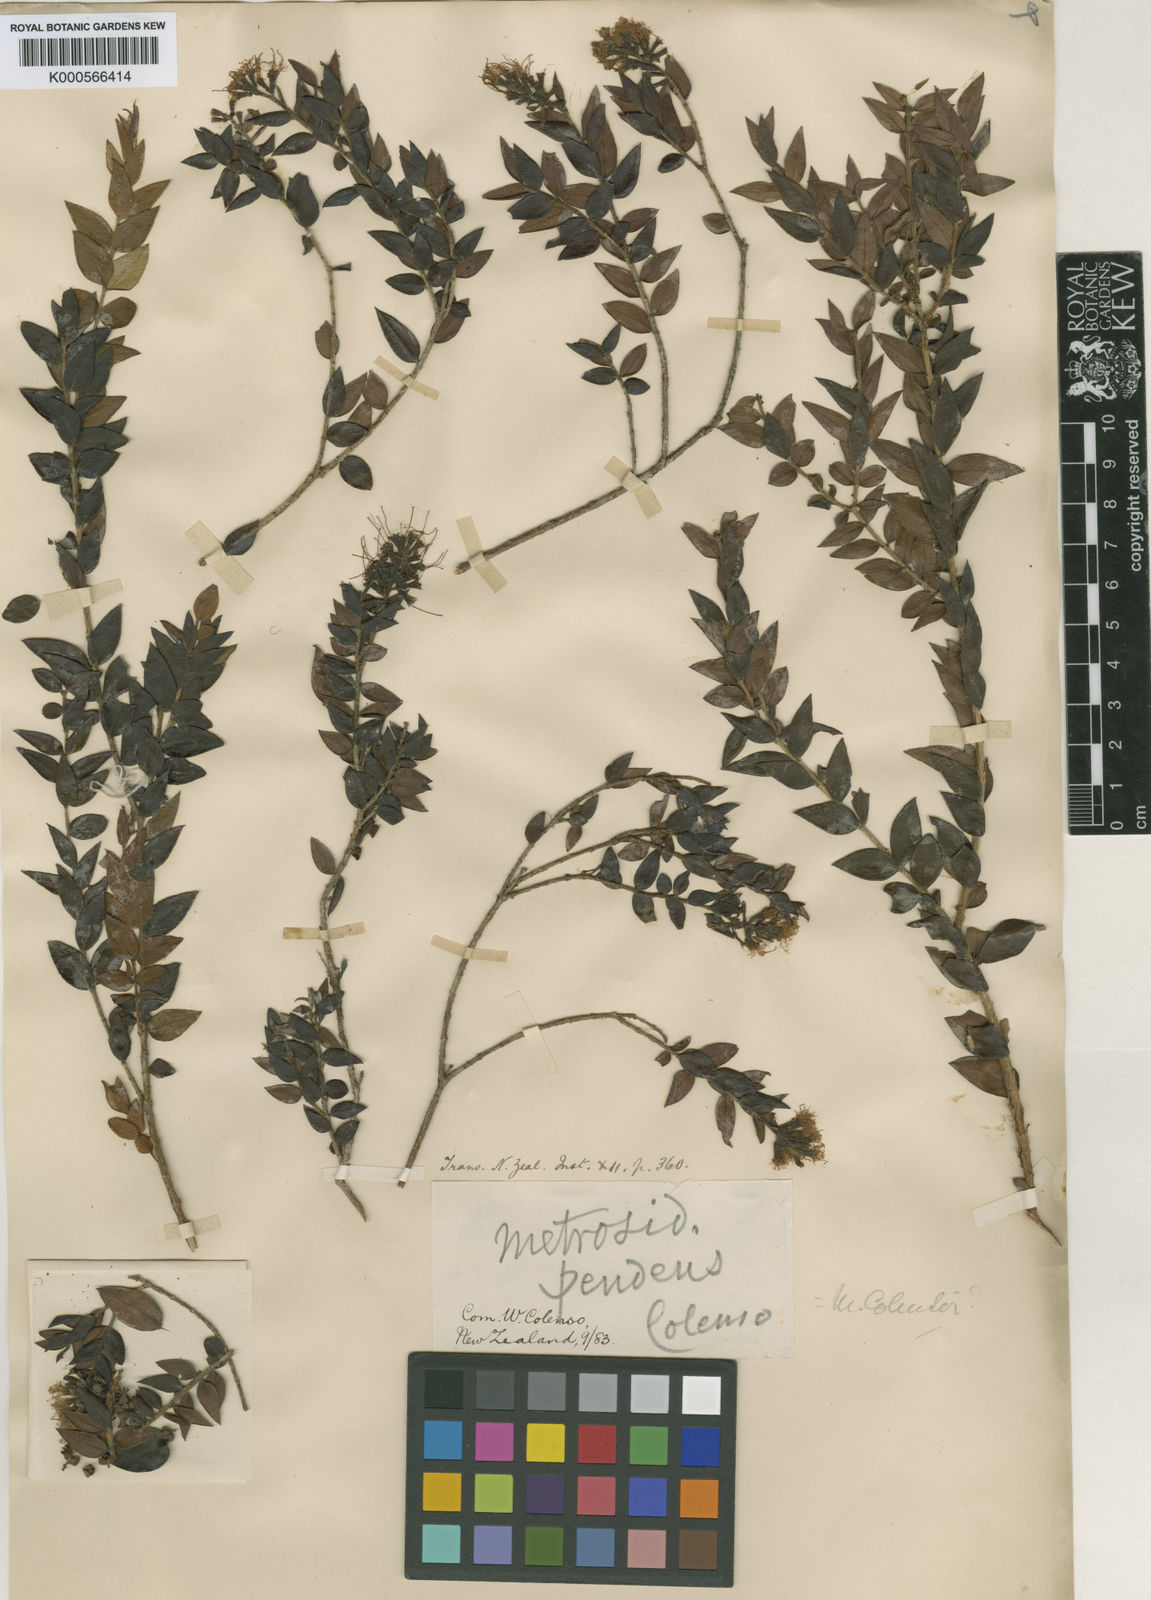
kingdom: Plantae
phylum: Tracheophyta
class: Magnoliopsida
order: Myrtales
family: Myrtaceae
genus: Metrosideros
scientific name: Metrosideros colensoi
